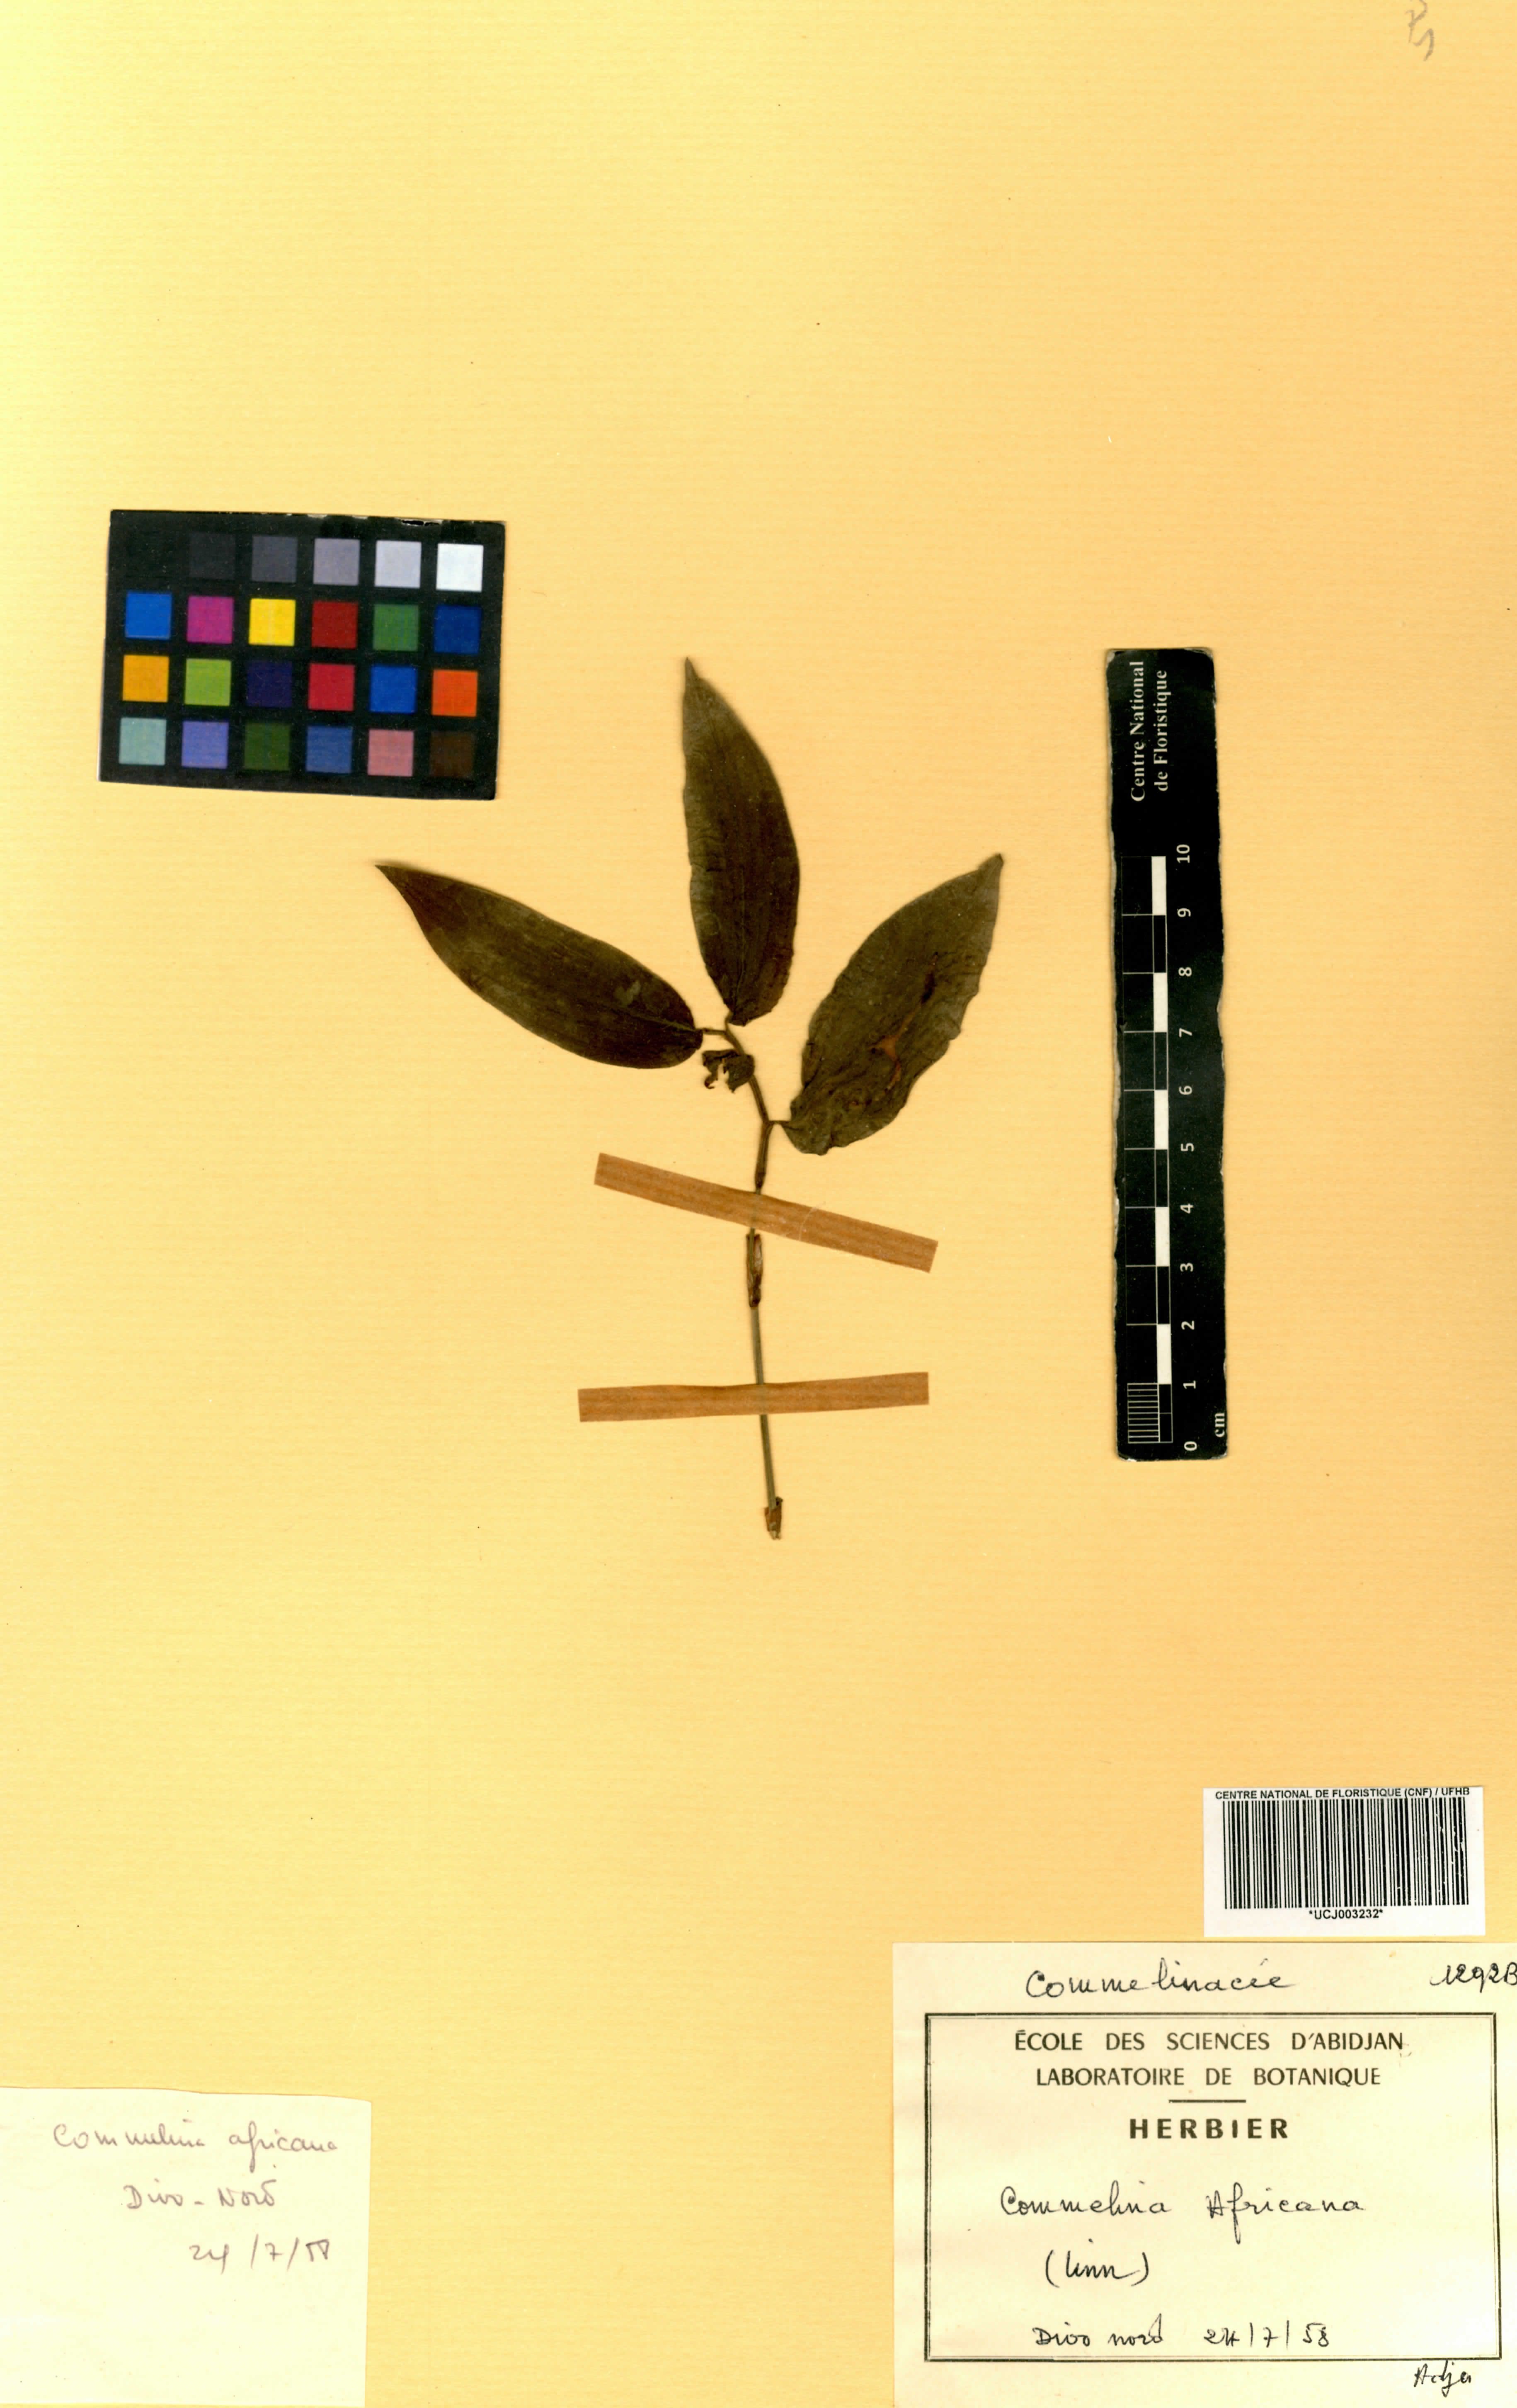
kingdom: Plantae
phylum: Tracheophyta
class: Liliopsida
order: Commelinales
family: Commelinaceae
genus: Commelina
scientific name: Commelina africana
